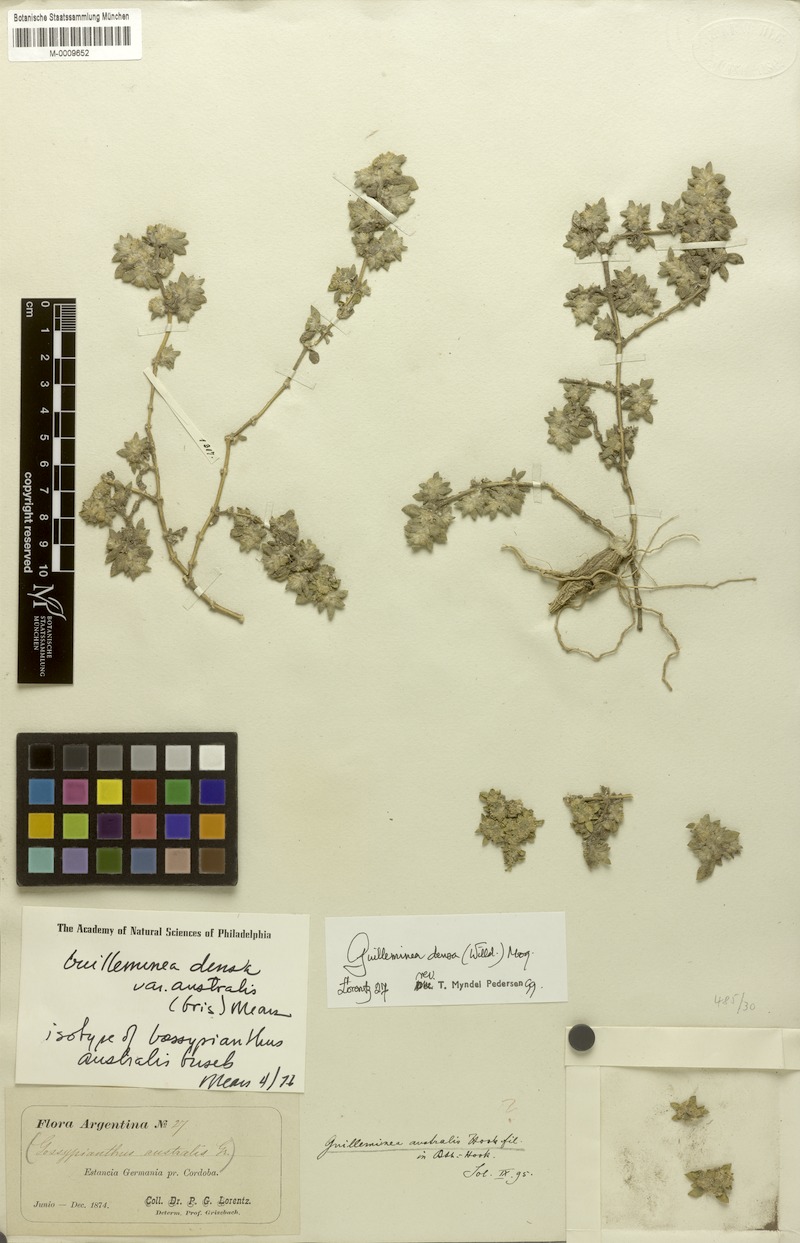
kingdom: Plantae
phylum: Tracheophyta
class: Magnoliopsida
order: Caryophyllales
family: Amaranthaceae
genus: Guilleminea
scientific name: Guilleminea densa
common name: Small matweed
